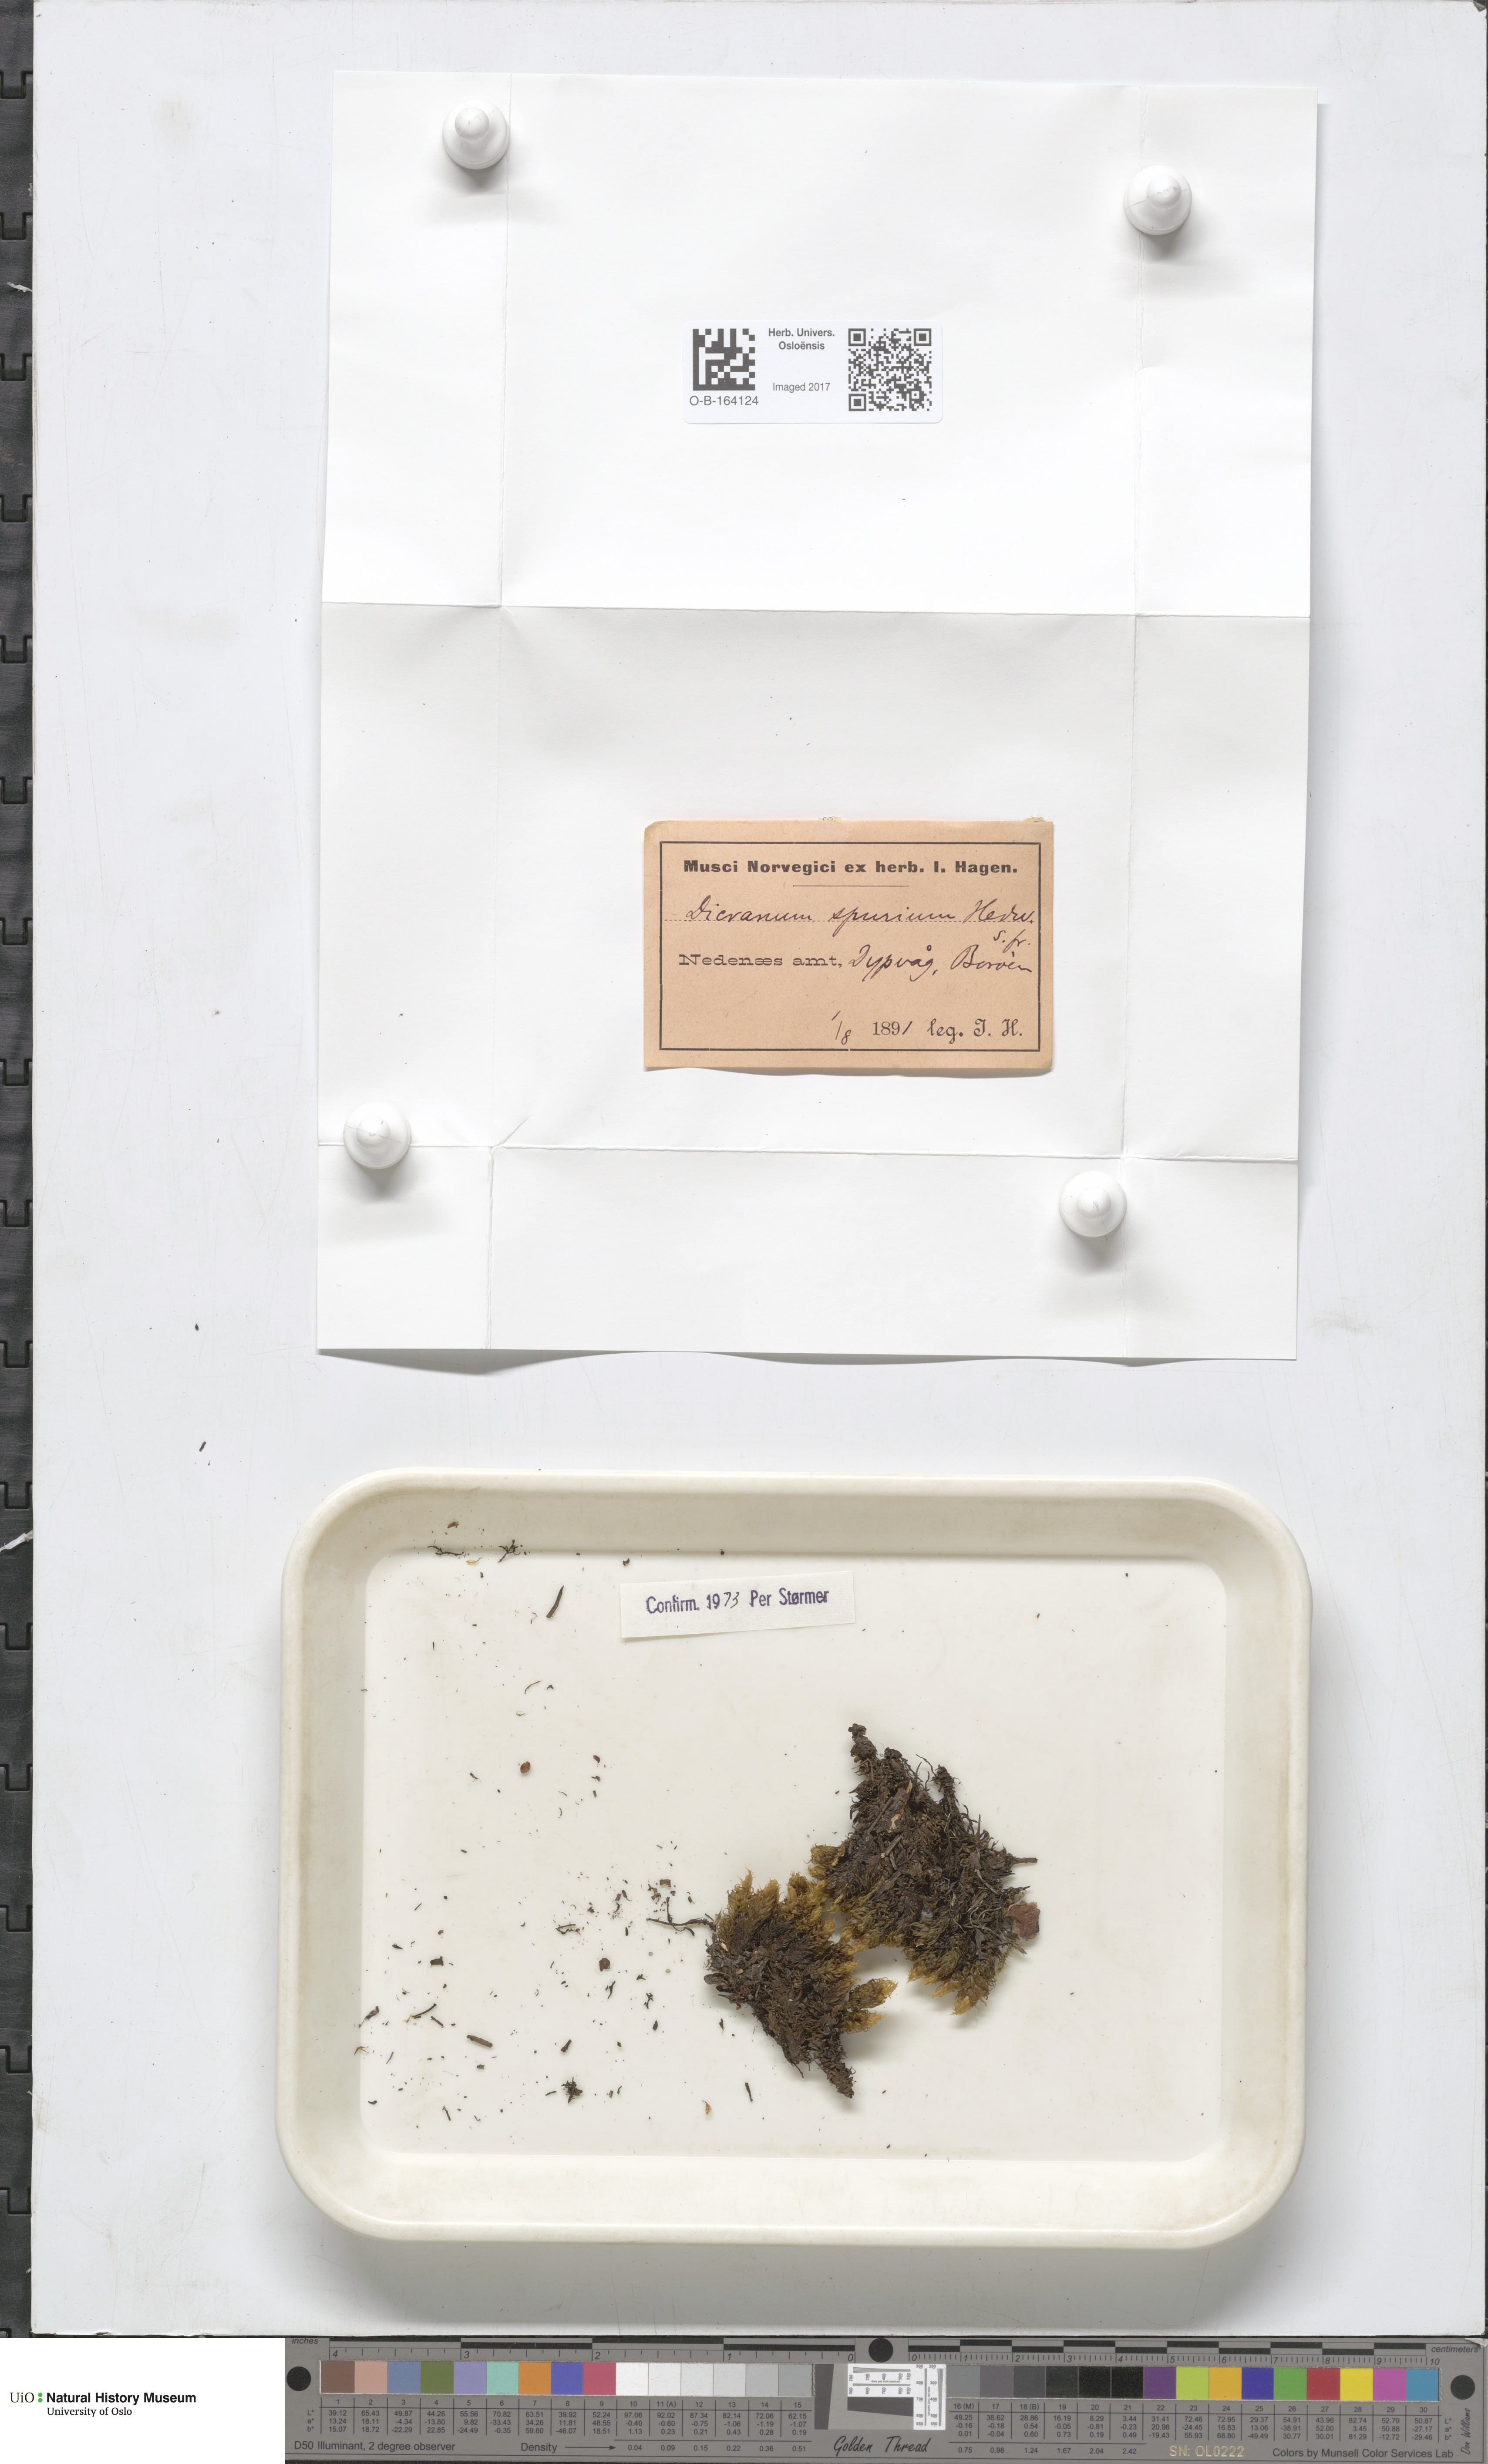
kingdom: Plantae
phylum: Bryophyta
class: Bryopsida
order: Dicranales
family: Dicranaceae
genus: Dicranum
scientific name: Dicranum spurium
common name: Spurred broom moss
